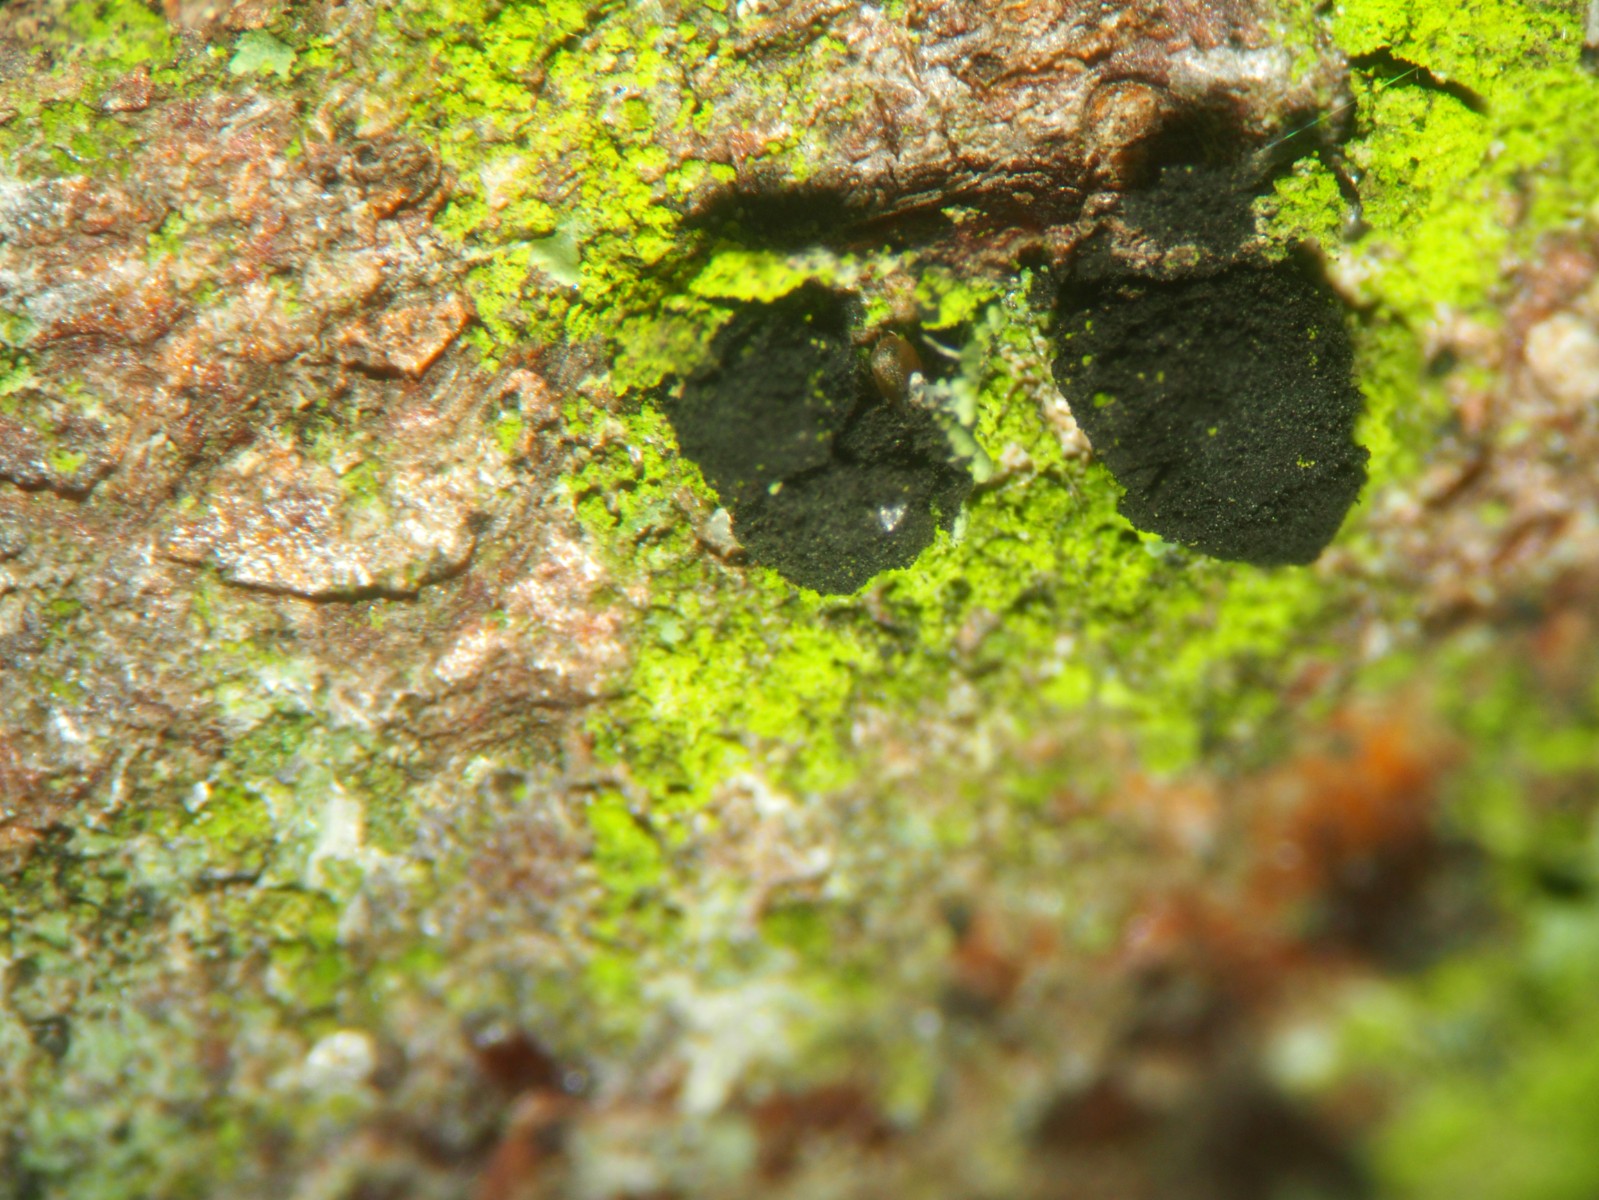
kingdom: Fungi
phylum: Ascomycota
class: Leotiomycetes
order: Helotiales
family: Mollisiaceae
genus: Trimmatostroma
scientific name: Trimmatostroma betulinum
